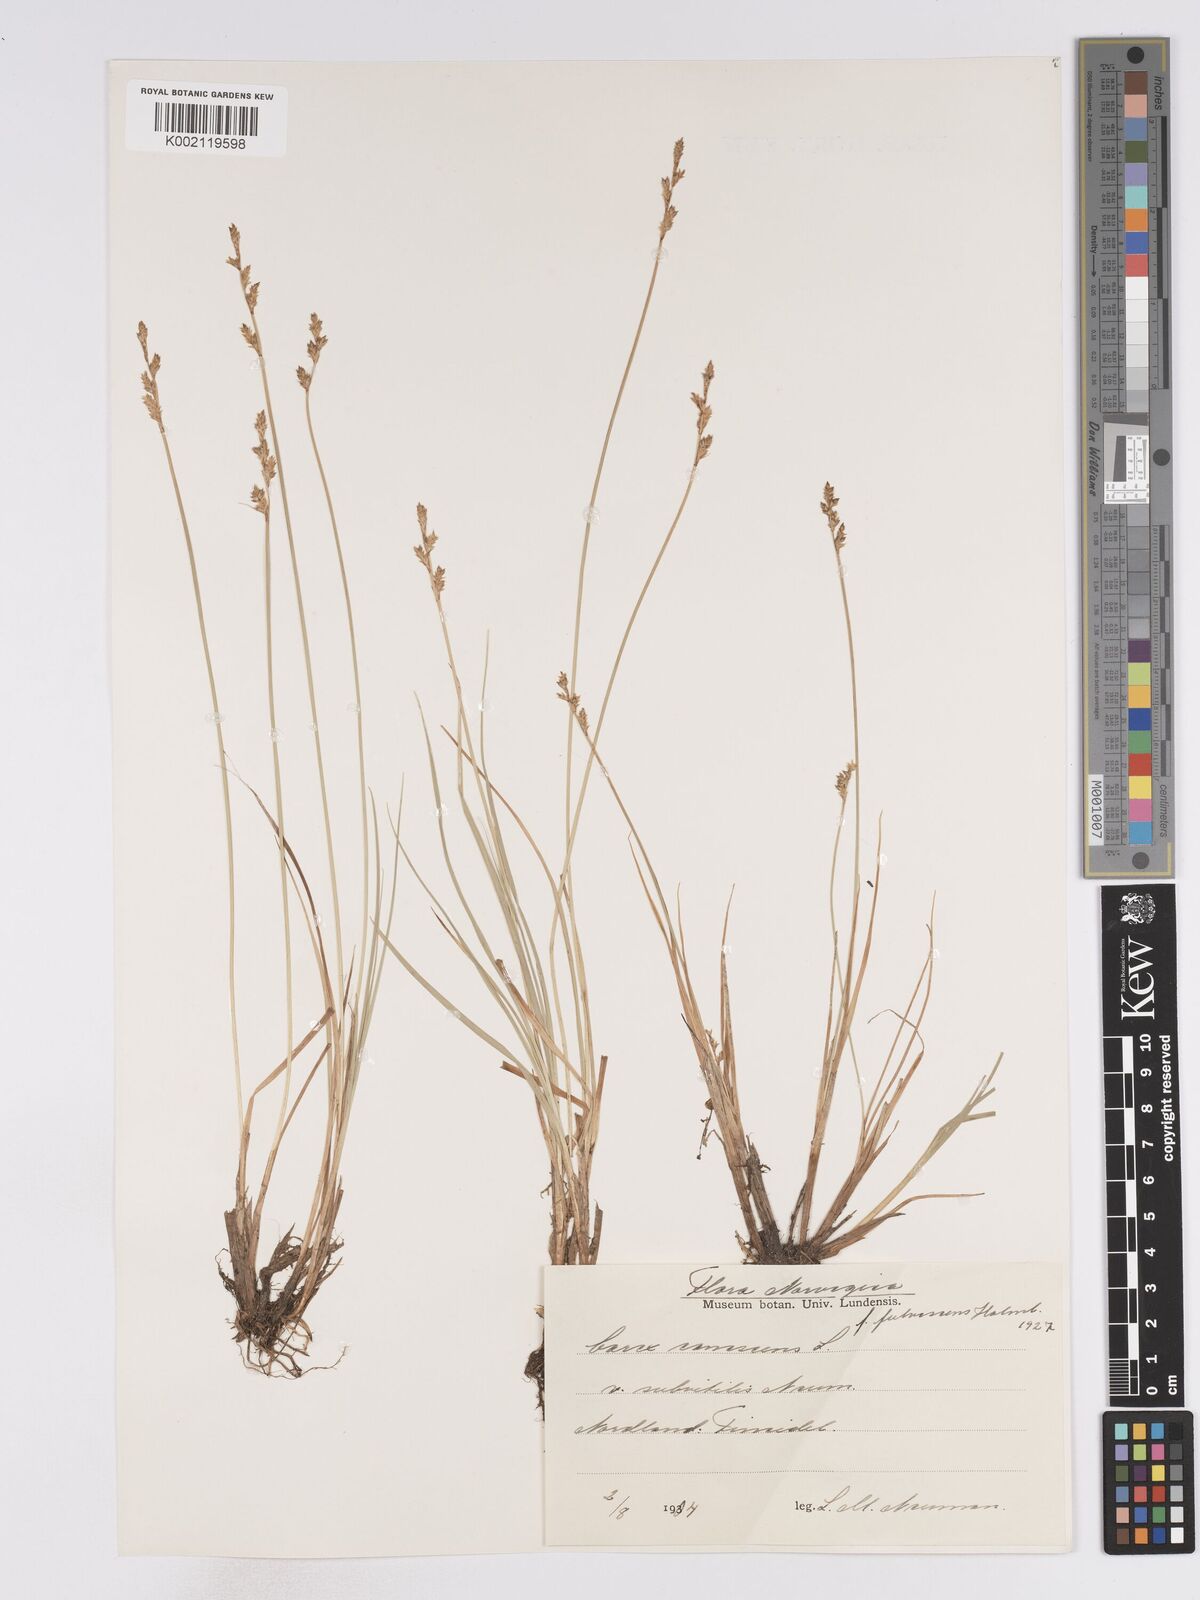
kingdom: Plantae
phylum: Tracheophyta
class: Liliopsida
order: Poales
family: Cyperaceae
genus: Carex
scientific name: Carex curta
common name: White sedge
